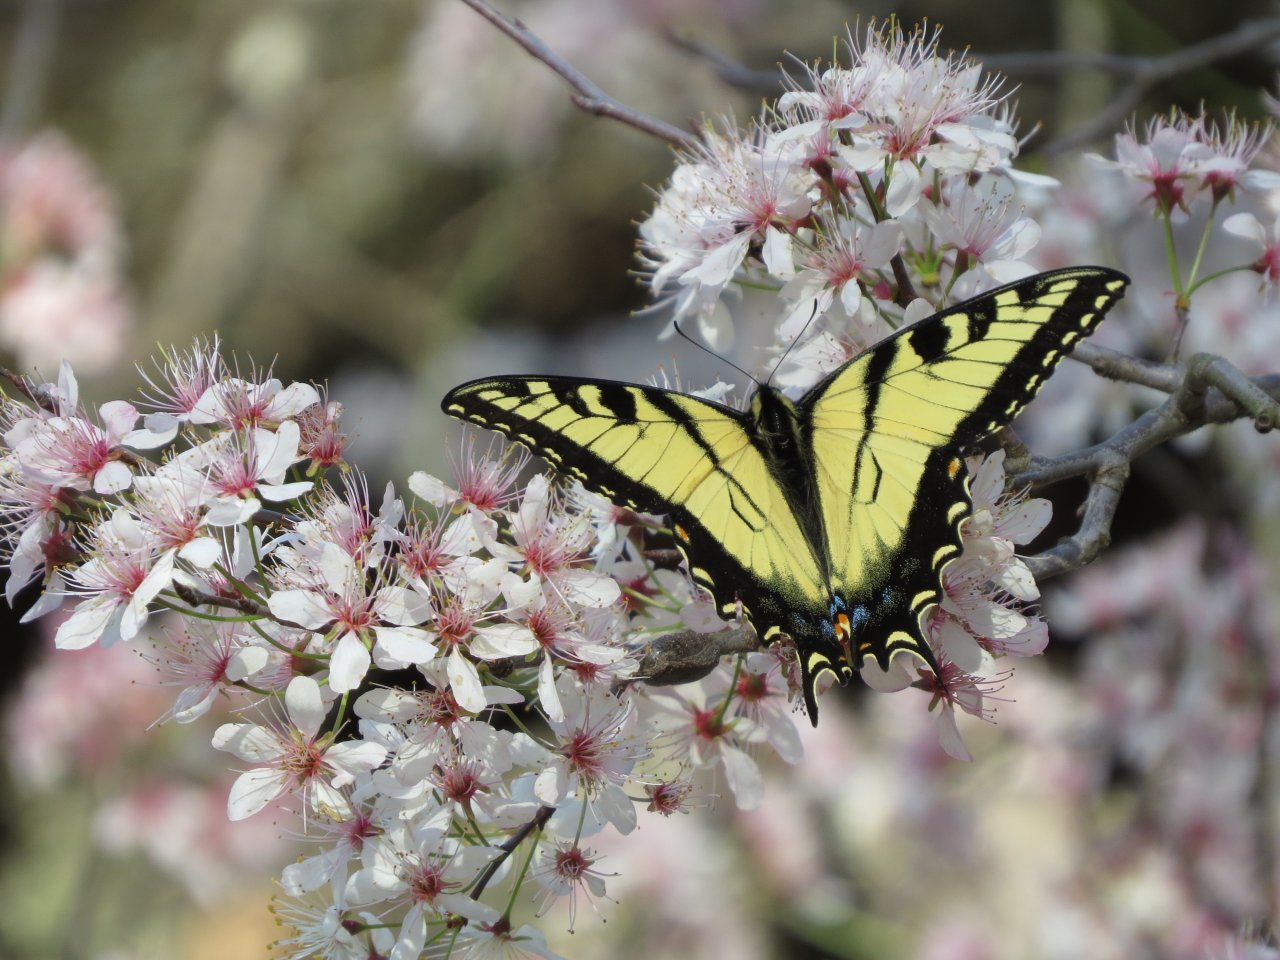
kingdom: Animalia
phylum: Arthropoda
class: Insecta
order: Lepidoptera
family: Papilionidae
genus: Pterourus
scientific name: Pterourus glaucus
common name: Eastern Tiger Swallowtail
